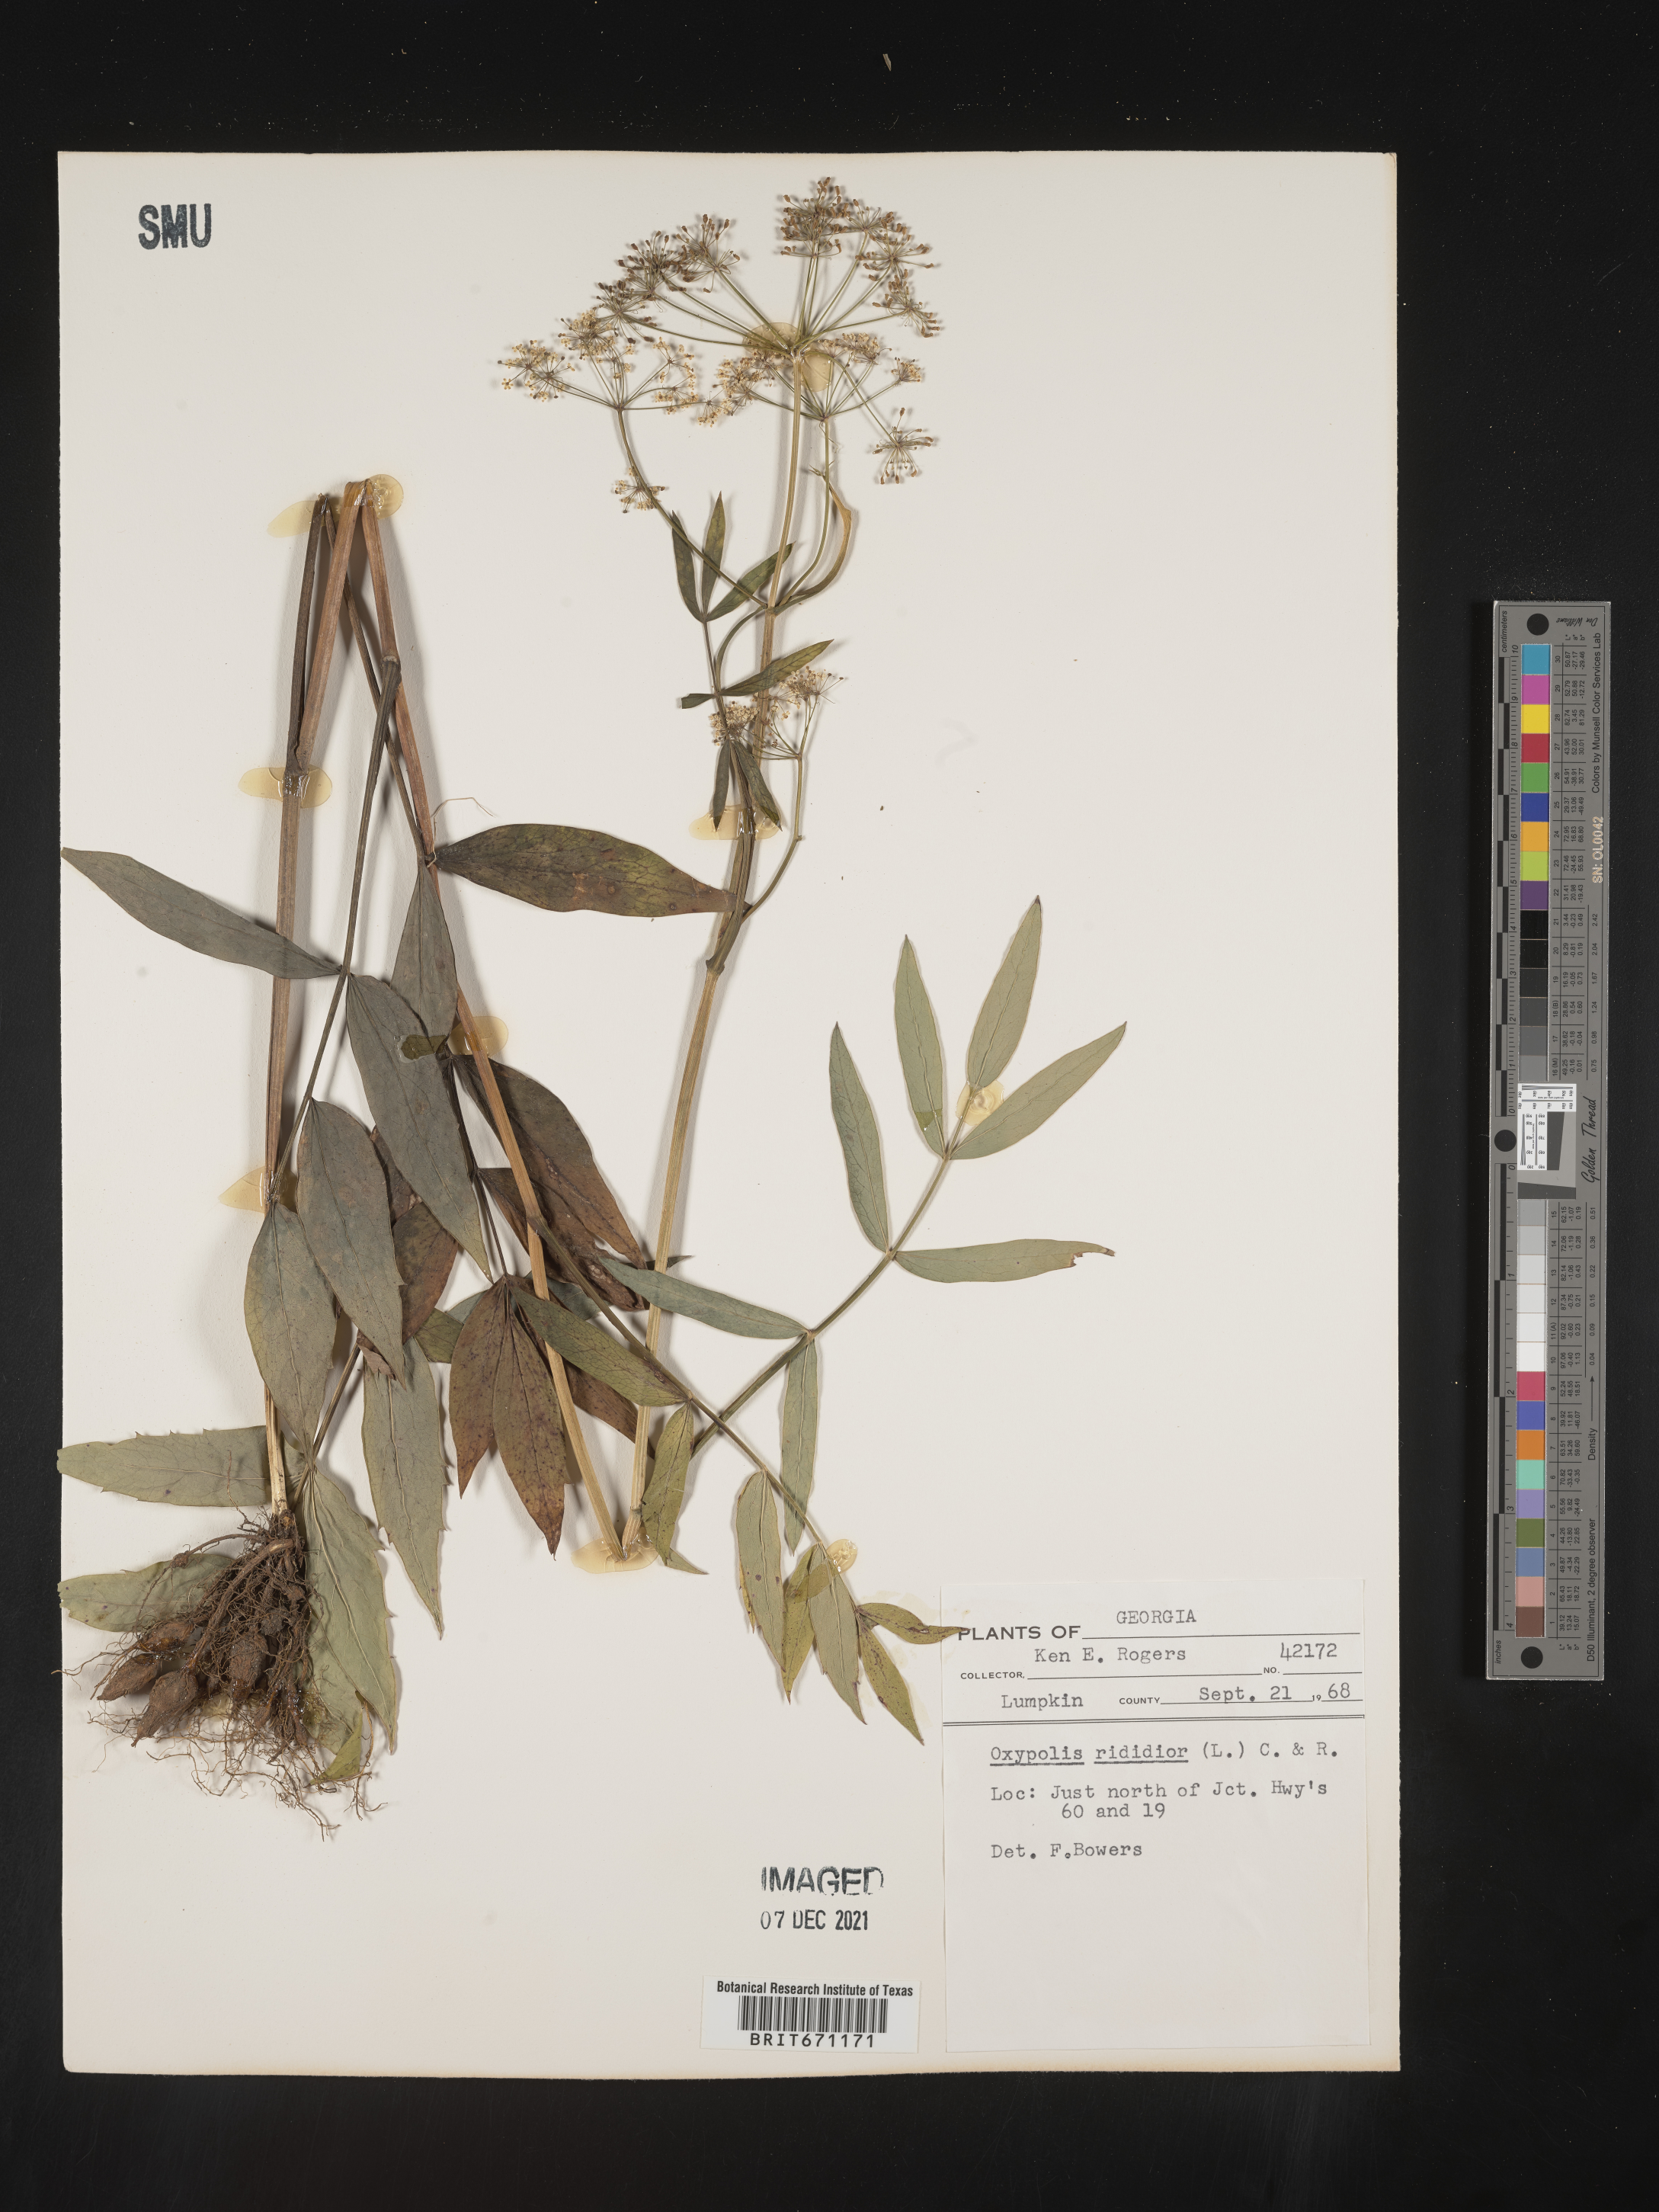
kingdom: Plantae
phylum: Tracheophyta
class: Magnoliopsida
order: Apiales
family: Apiaceae
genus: Oxypolis
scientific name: Oxypolis rigidior
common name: Cowbane
